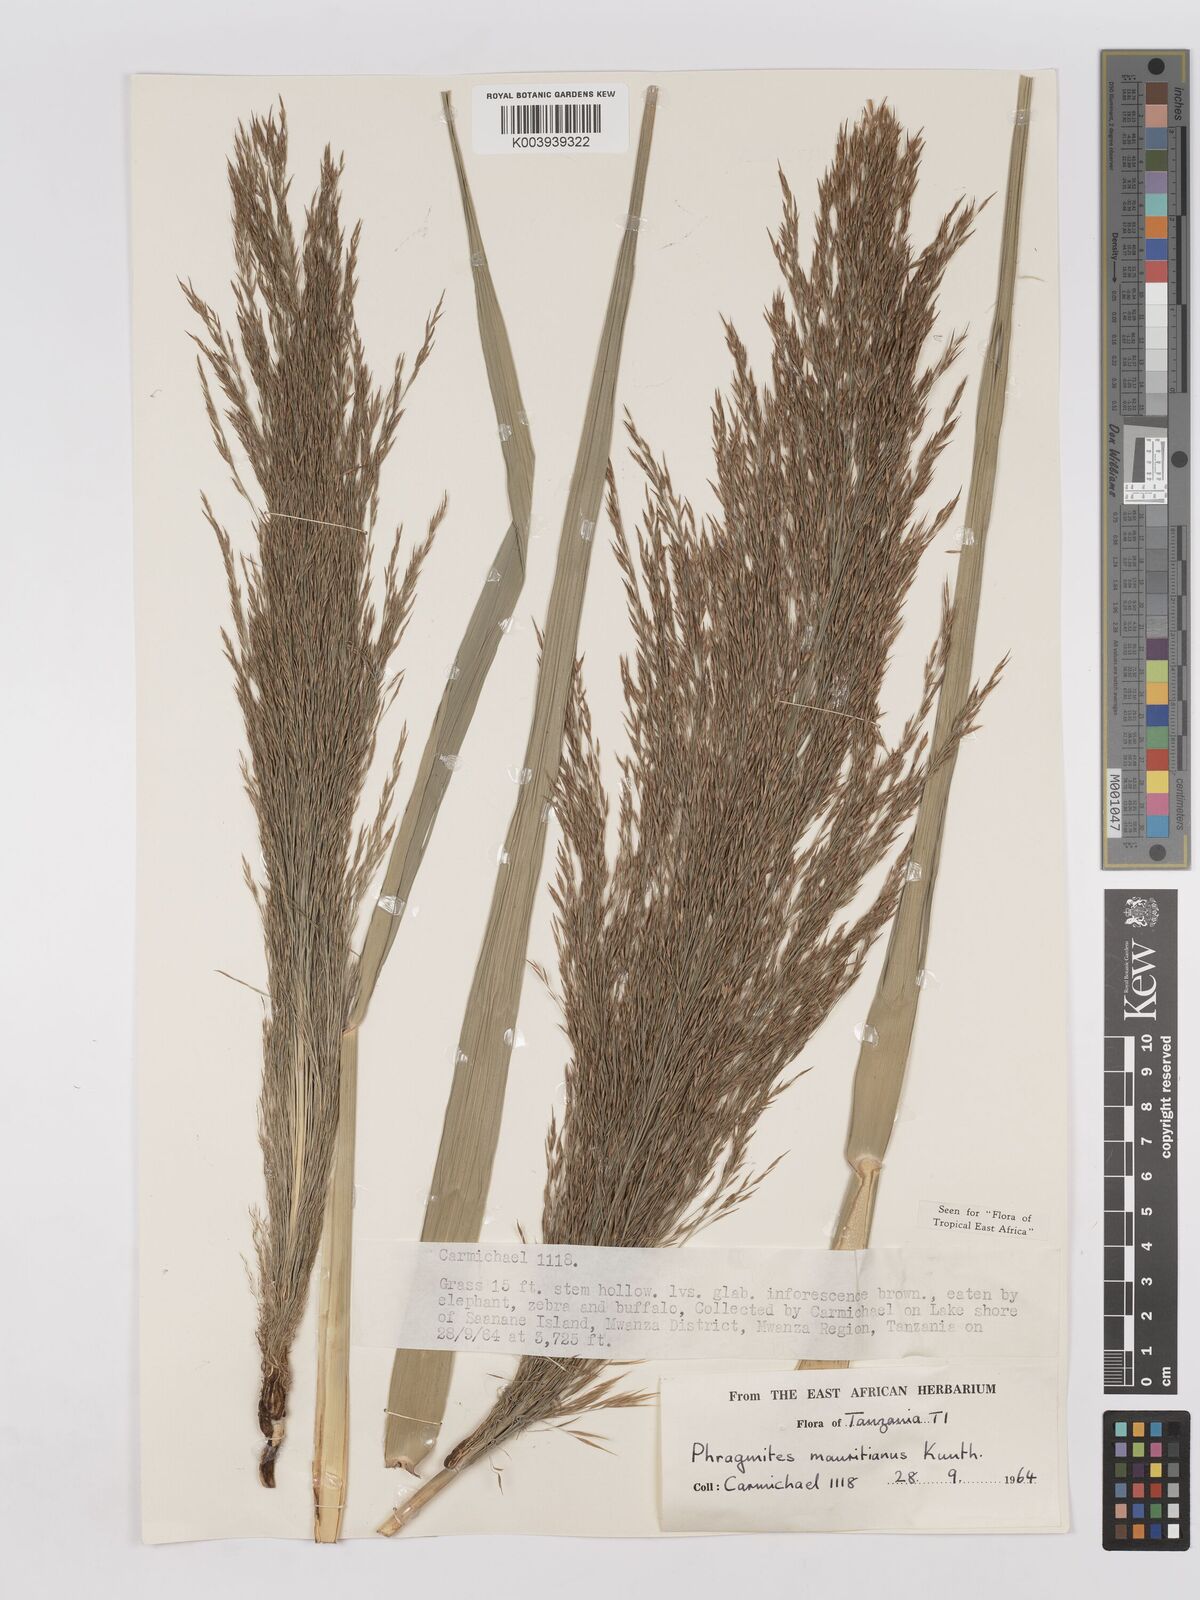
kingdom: Plantae
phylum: Tracheophyta
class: Liliopsida
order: Poales
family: Poaceae
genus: Phragmites
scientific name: Phragmites mauritianus
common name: Reed grass
